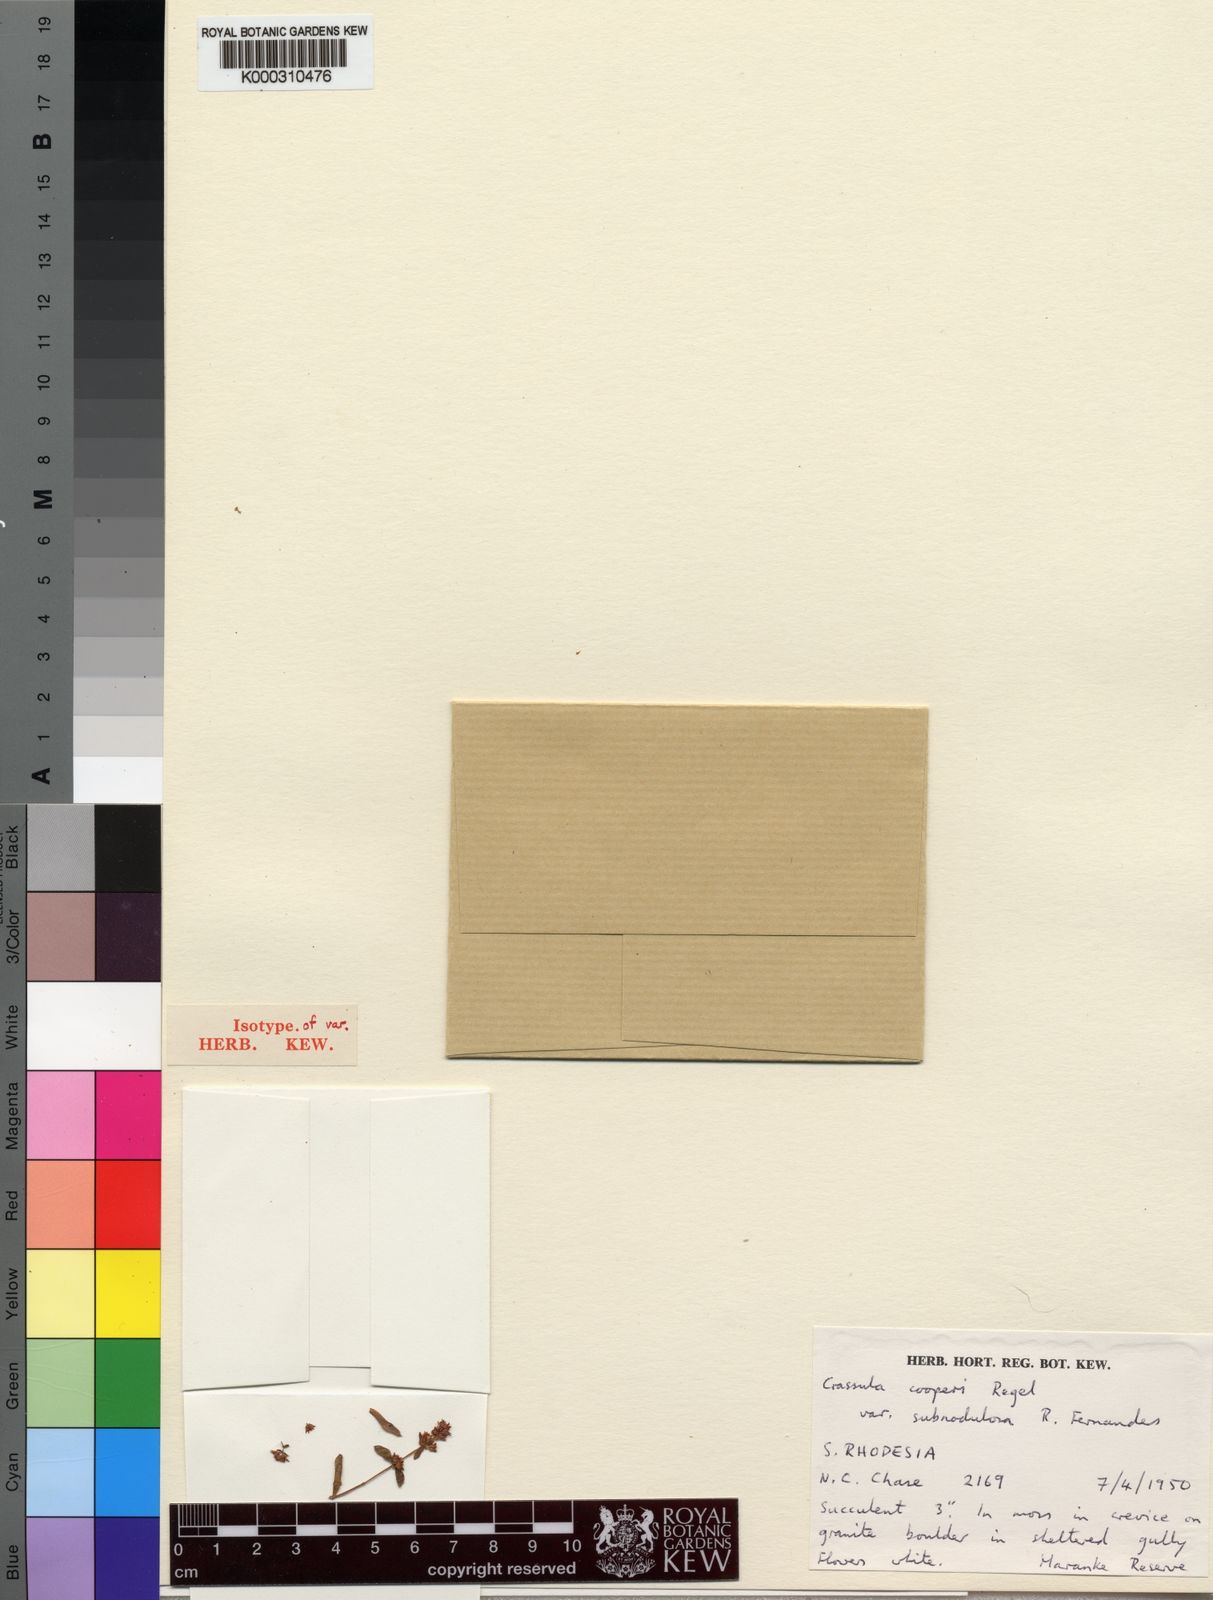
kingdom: Plantae
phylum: Tracheophyta
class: Magnoliopsida
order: Saxifragales
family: Crassulaceae
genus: Crassula
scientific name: Crassula cooperi
